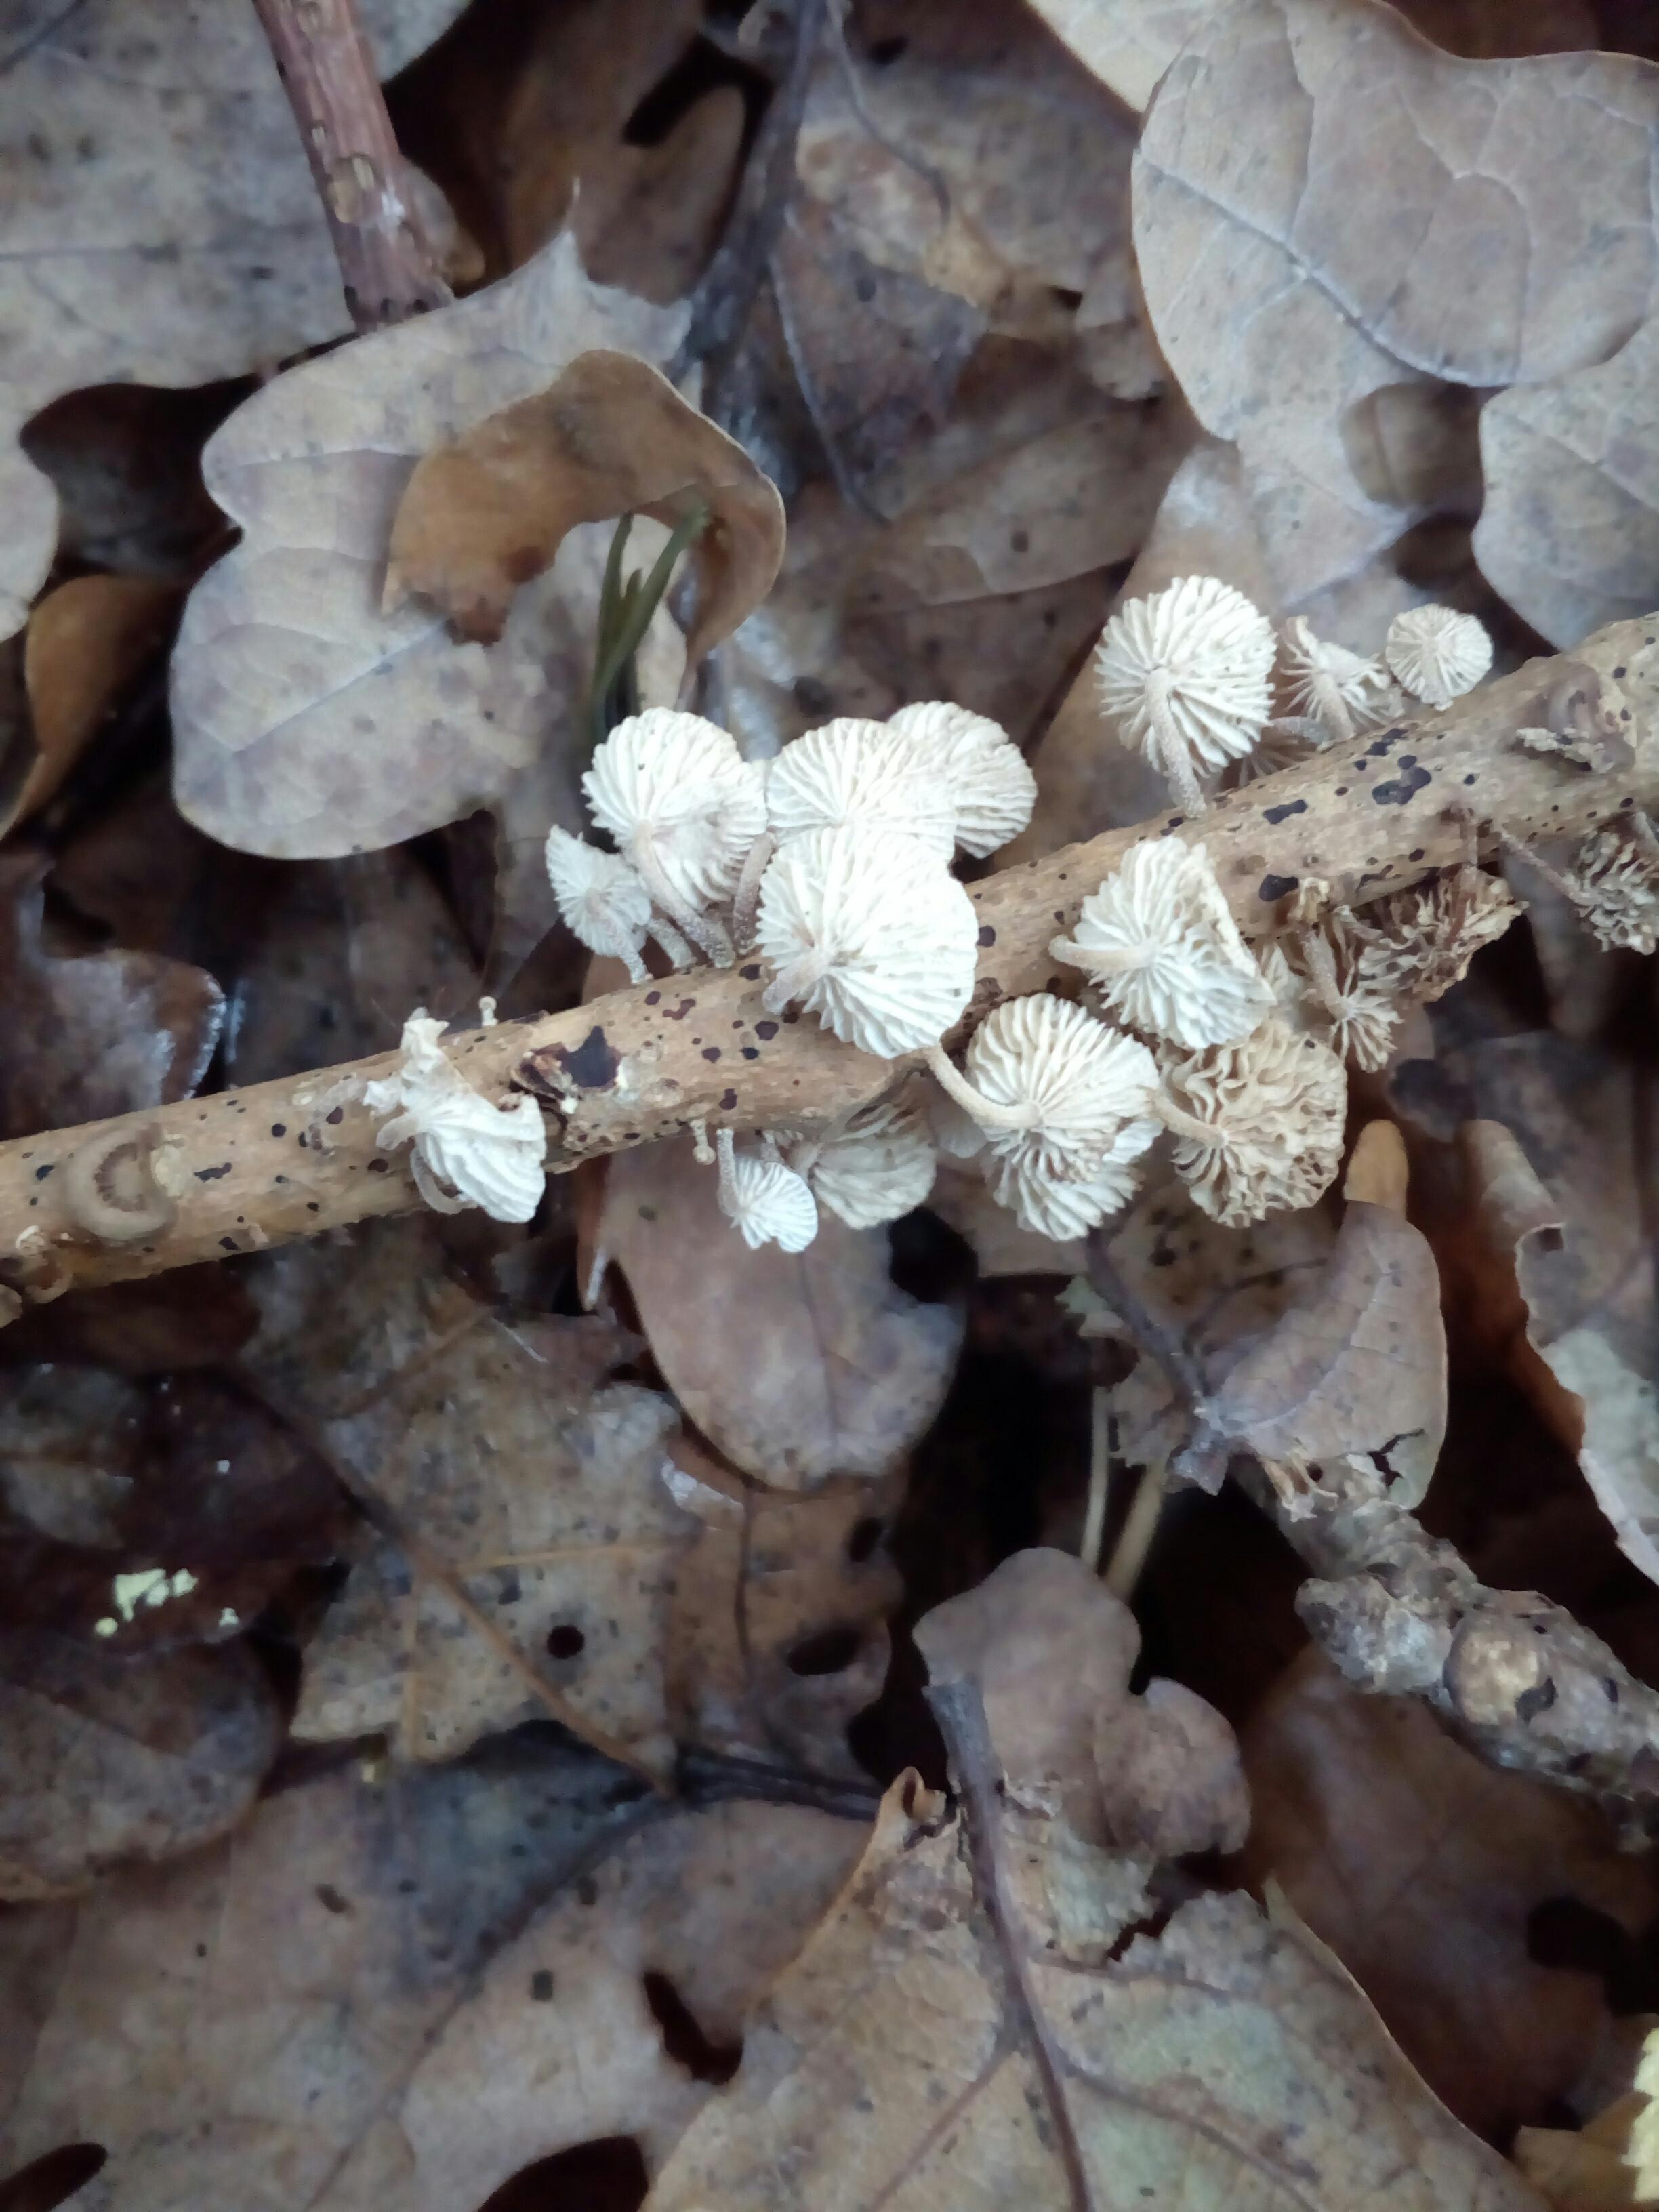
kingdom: Fungi
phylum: Basidiomycota
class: Agaricomycetes
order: Agaricales
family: Omphalotaceae
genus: Collybiopsis
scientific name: Collybiopsis ramealis
